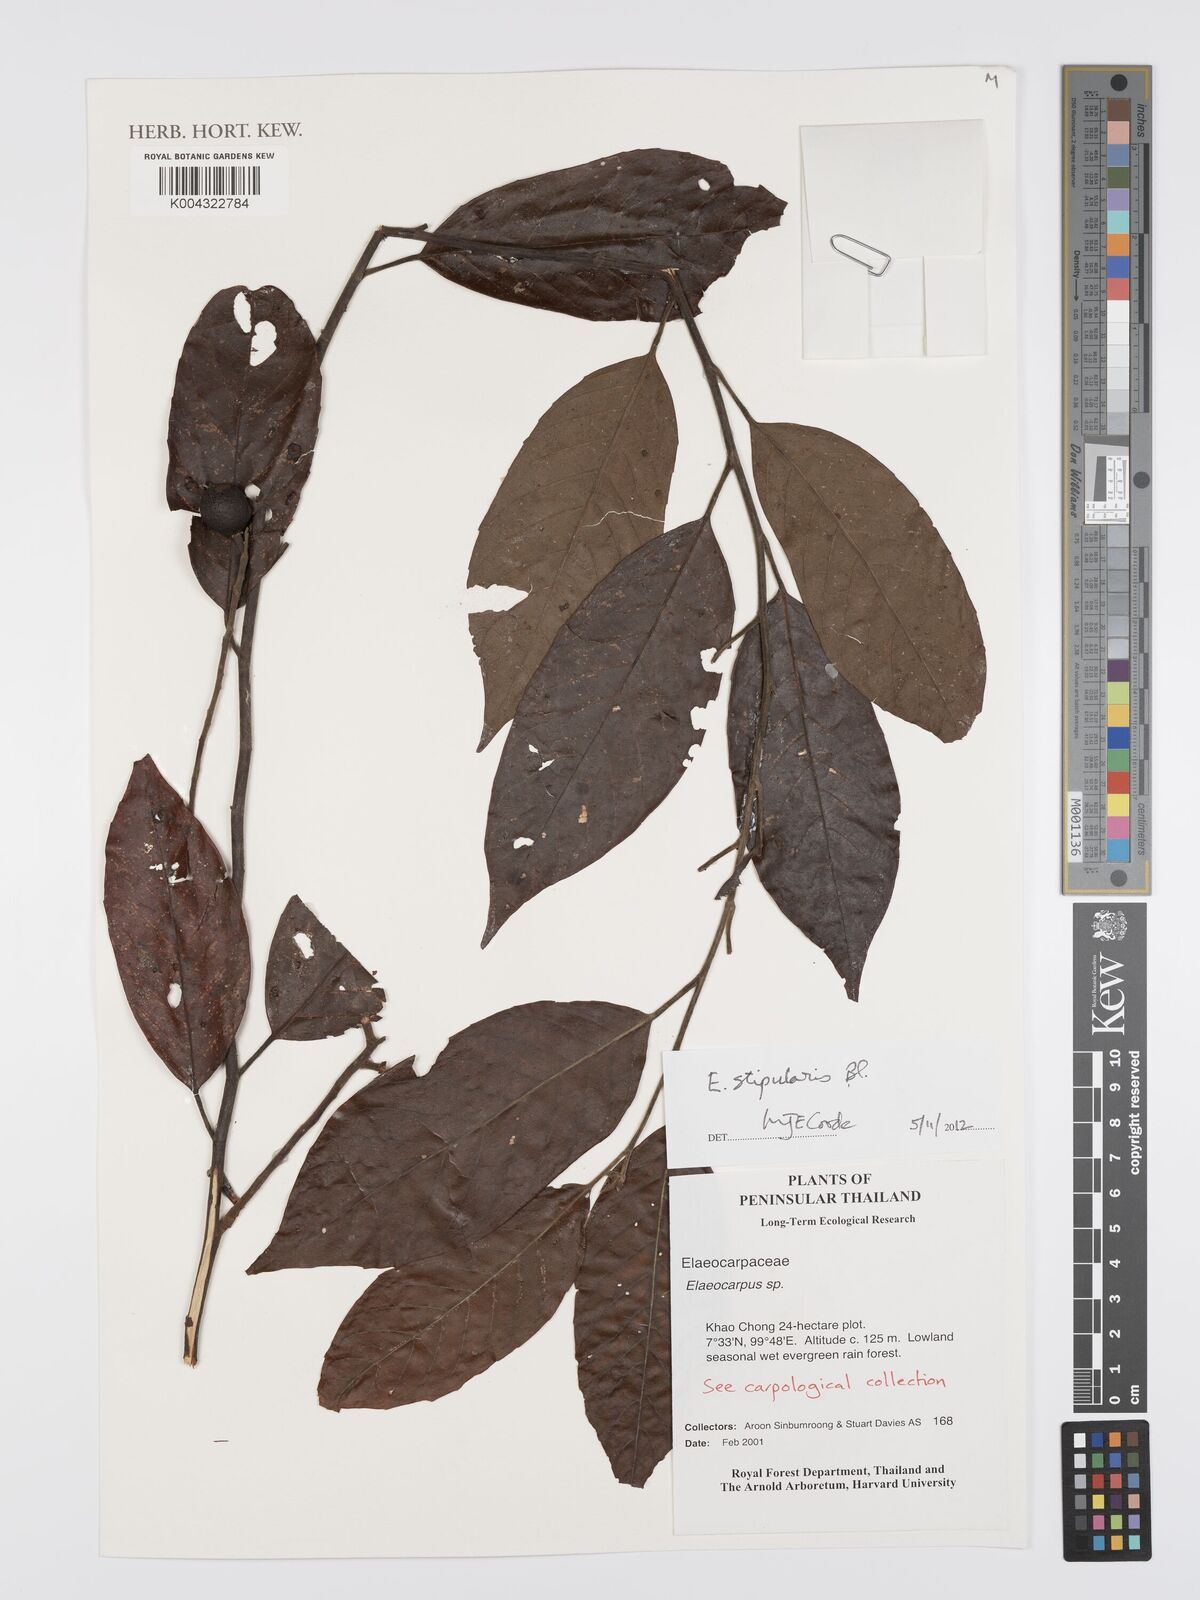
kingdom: Plantae
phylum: Tracheophyta
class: Magnoliopsida
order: Oxalidales
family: Elaeocarpaceae
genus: Elaeocarpus
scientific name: Elaeocarpus stipularis
